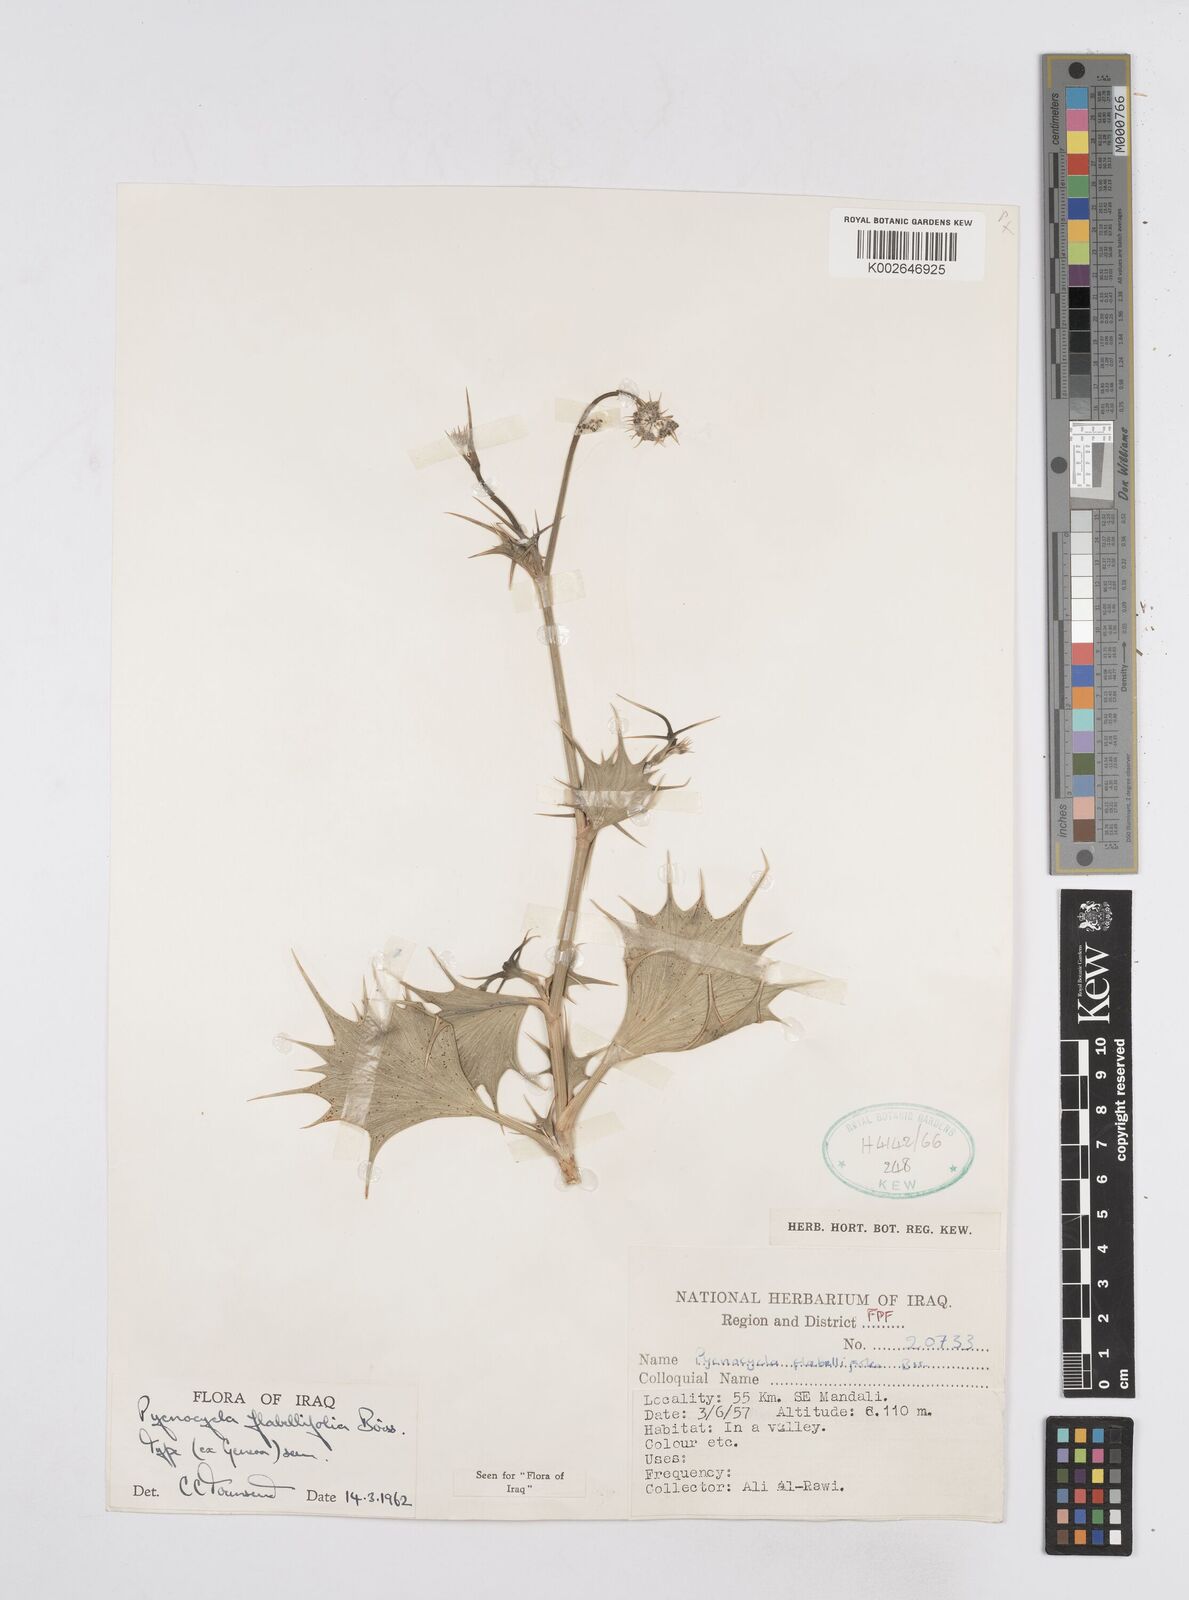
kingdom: Plantae
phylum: Tracheophyta
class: Magnoliopsida
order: Apiales
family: Apiaceae
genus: Pycnocycla
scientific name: Pycnocycla flabellifolia
